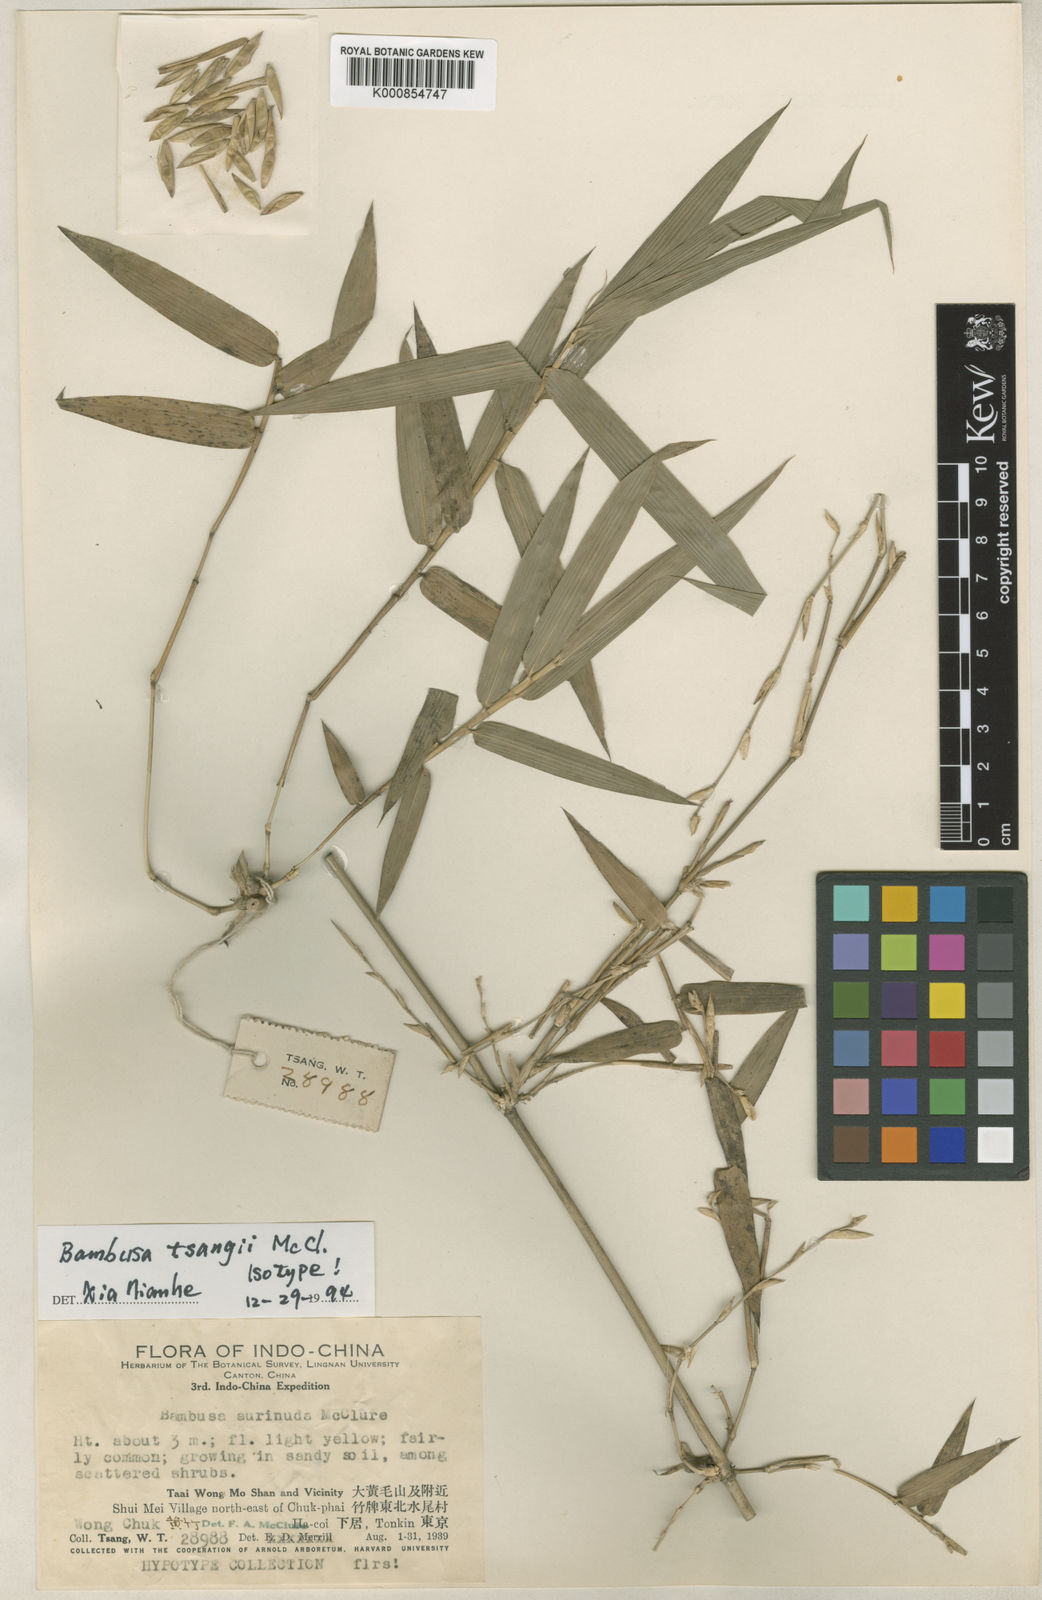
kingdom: Plantae
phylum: Tracheophyta
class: Liliopsida
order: Poales
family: Poaceae
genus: Bambusa
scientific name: Bambusa tsangii
